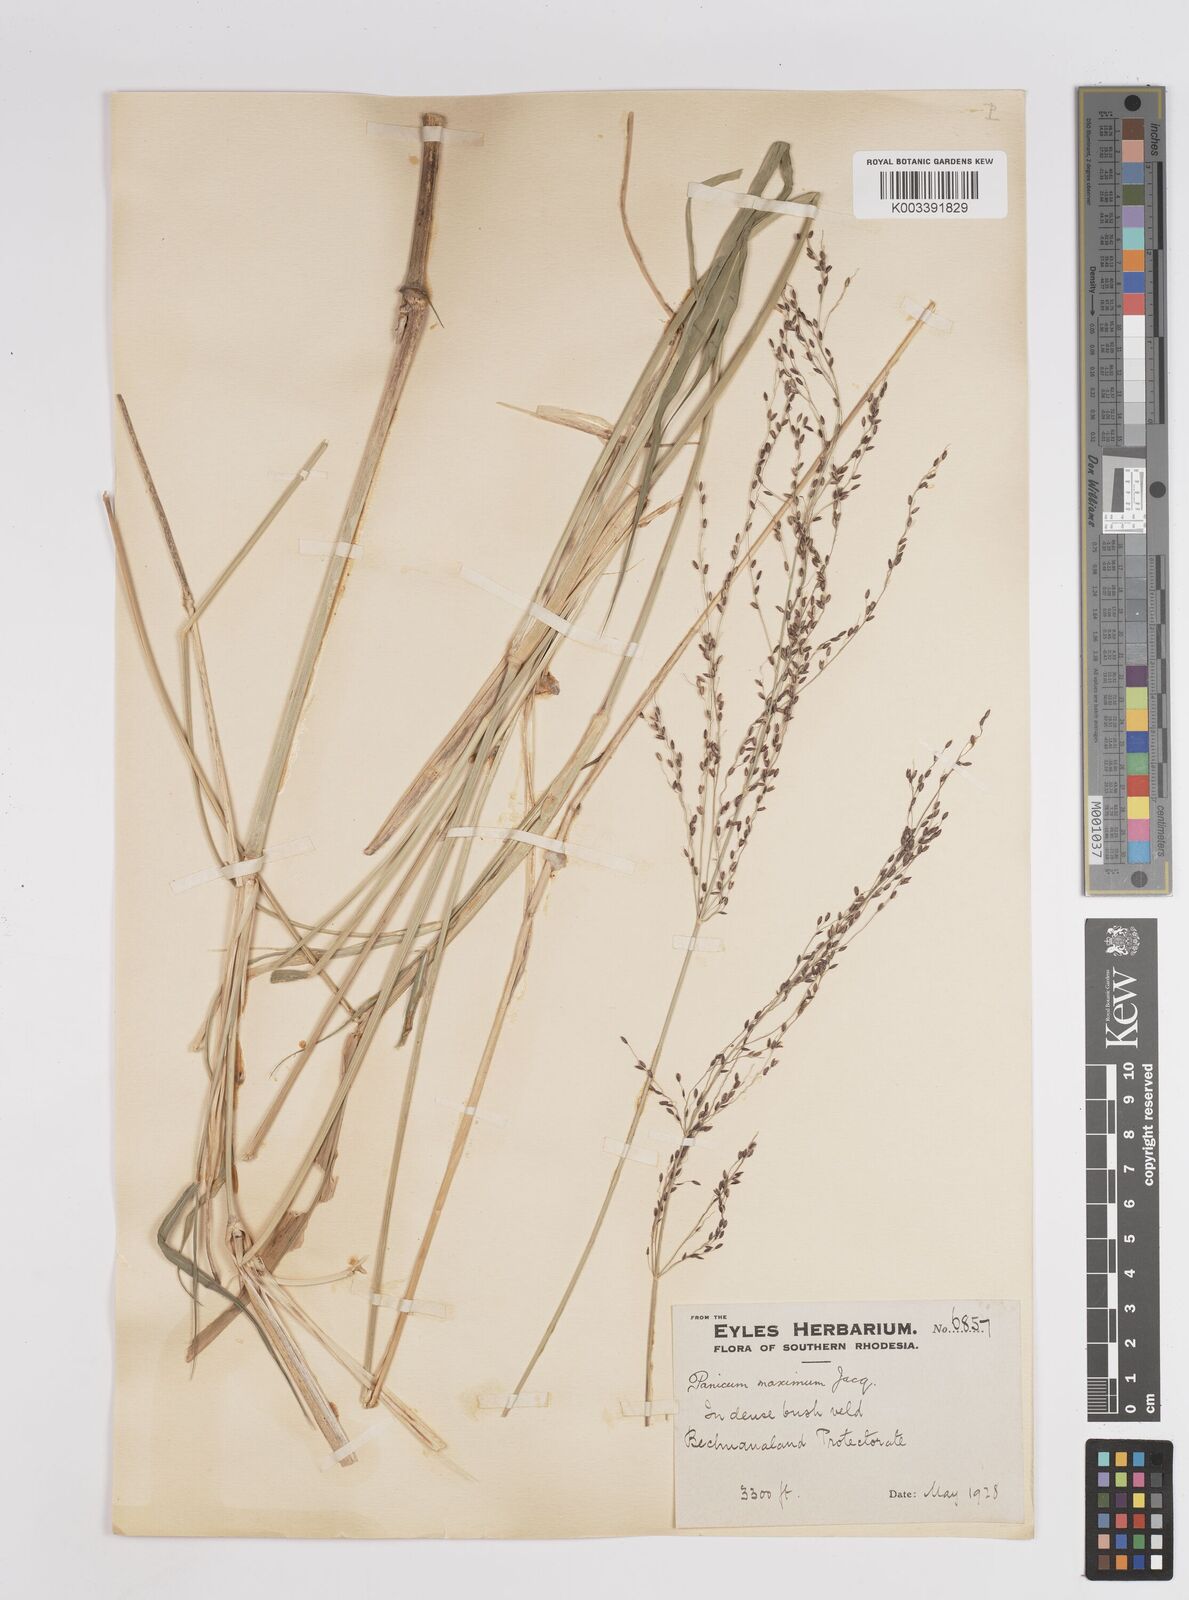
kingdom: Plantae
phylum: Tracheophyta
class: Liliopsida
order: Poales
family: Poaceae
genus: Megathyrsus
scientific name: Megathyrsus maximus
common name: Guineagrass
